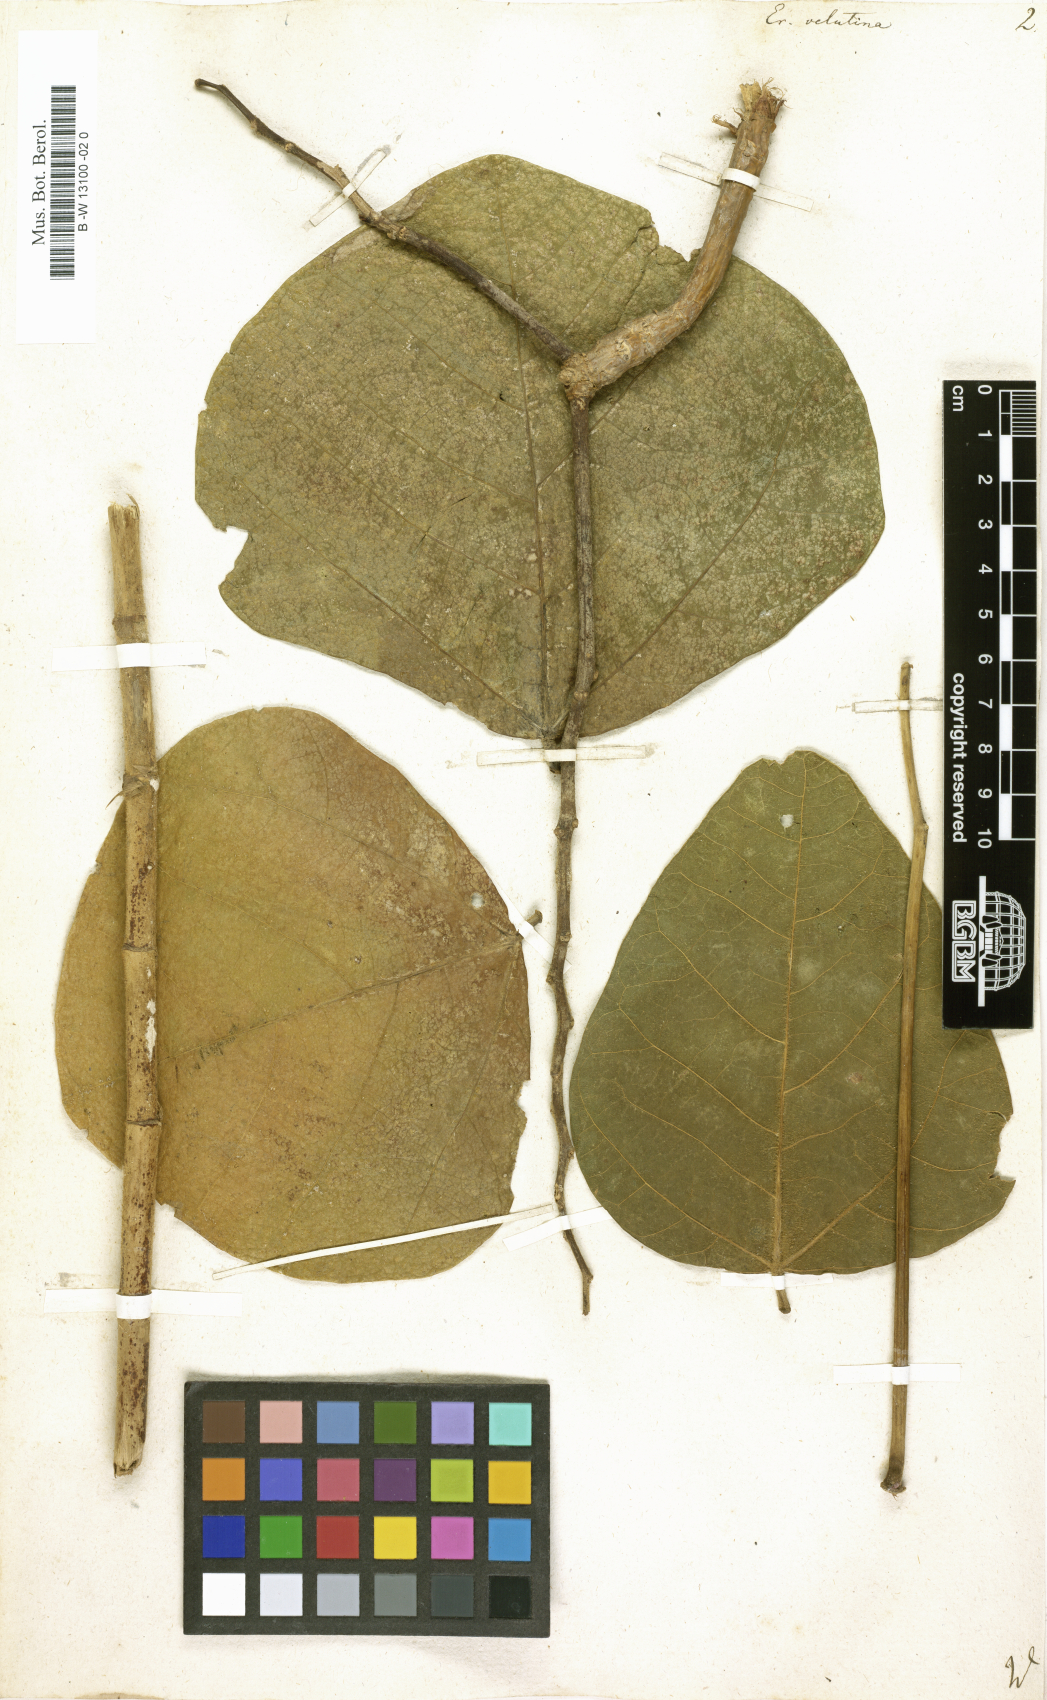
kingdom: Plantae
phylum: Tracheophyta
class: Magnoliopsida
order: Fabales
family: Fabaceae
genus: Erythrina
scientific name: Erythrina velutina
